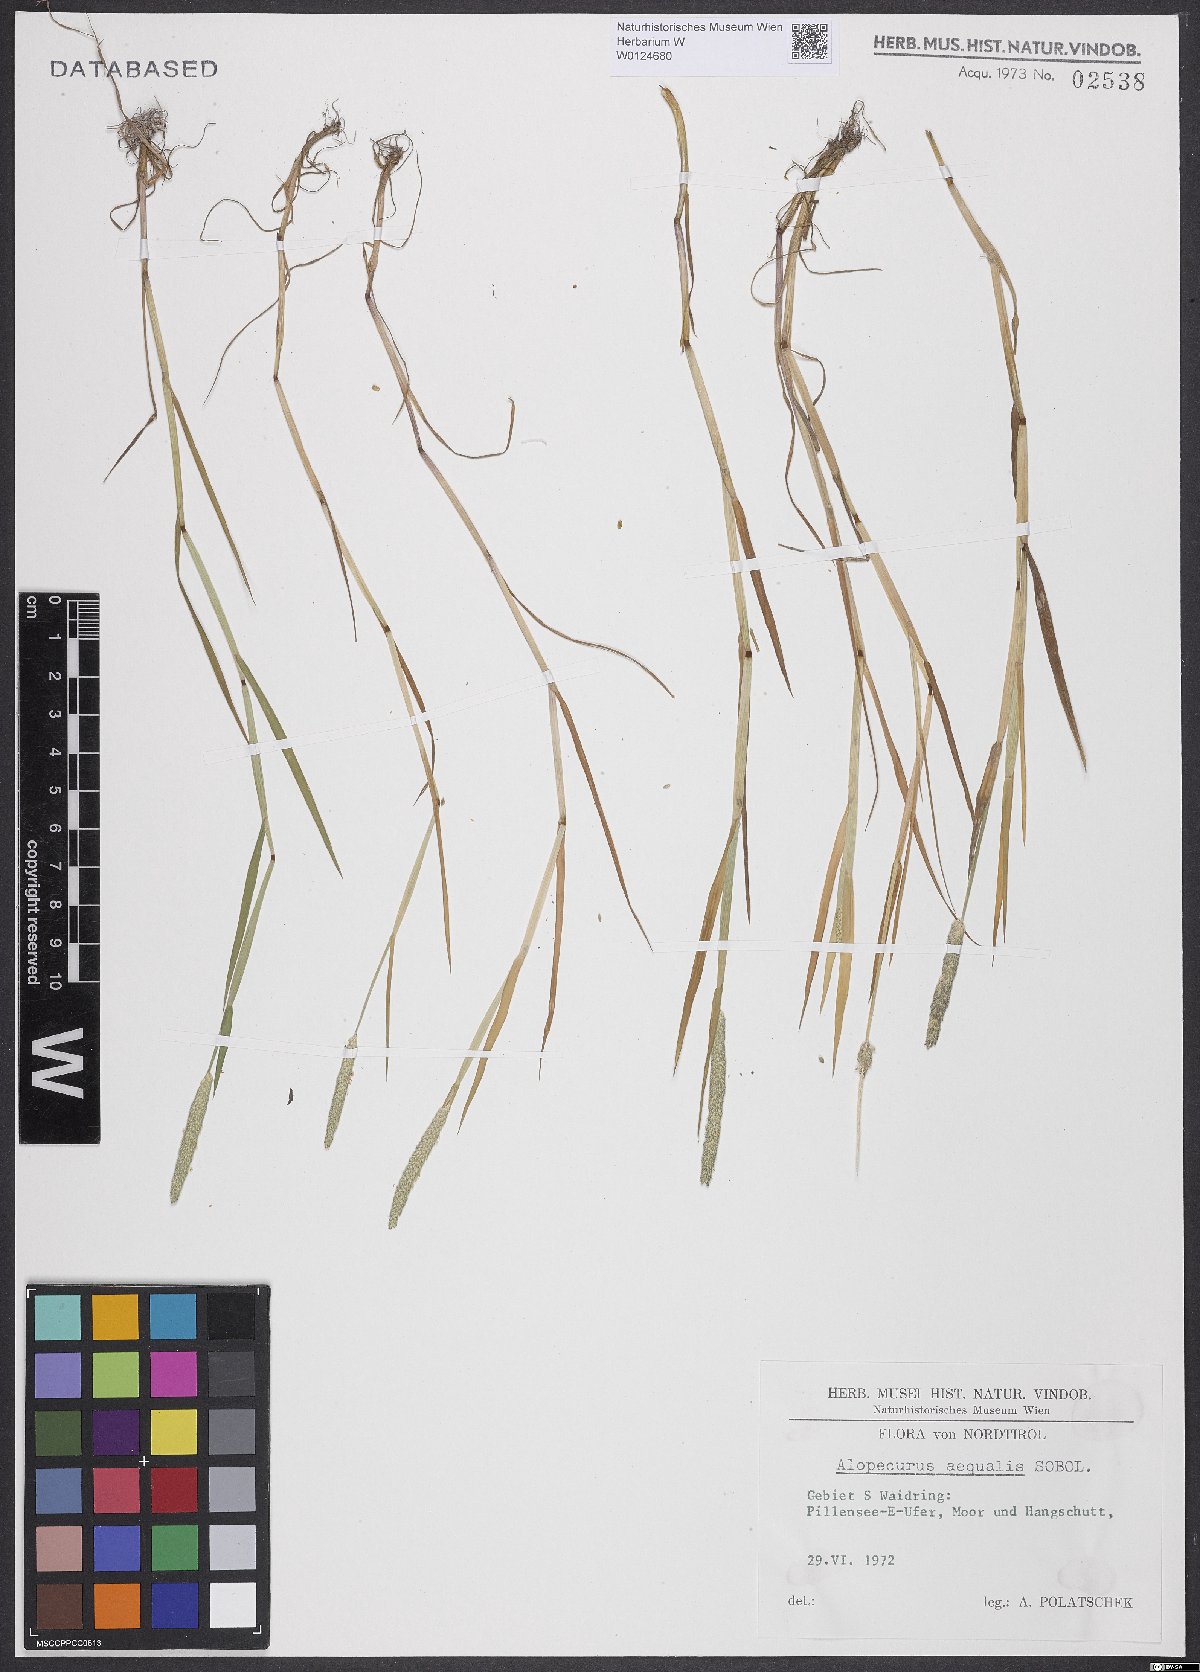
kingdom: Plantae
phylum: Tracheophyta
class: Liliopsida
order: Poales
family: Poaceae
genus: Alopecurus
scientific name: Alopecurus aequalis
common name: Orange foxtail
